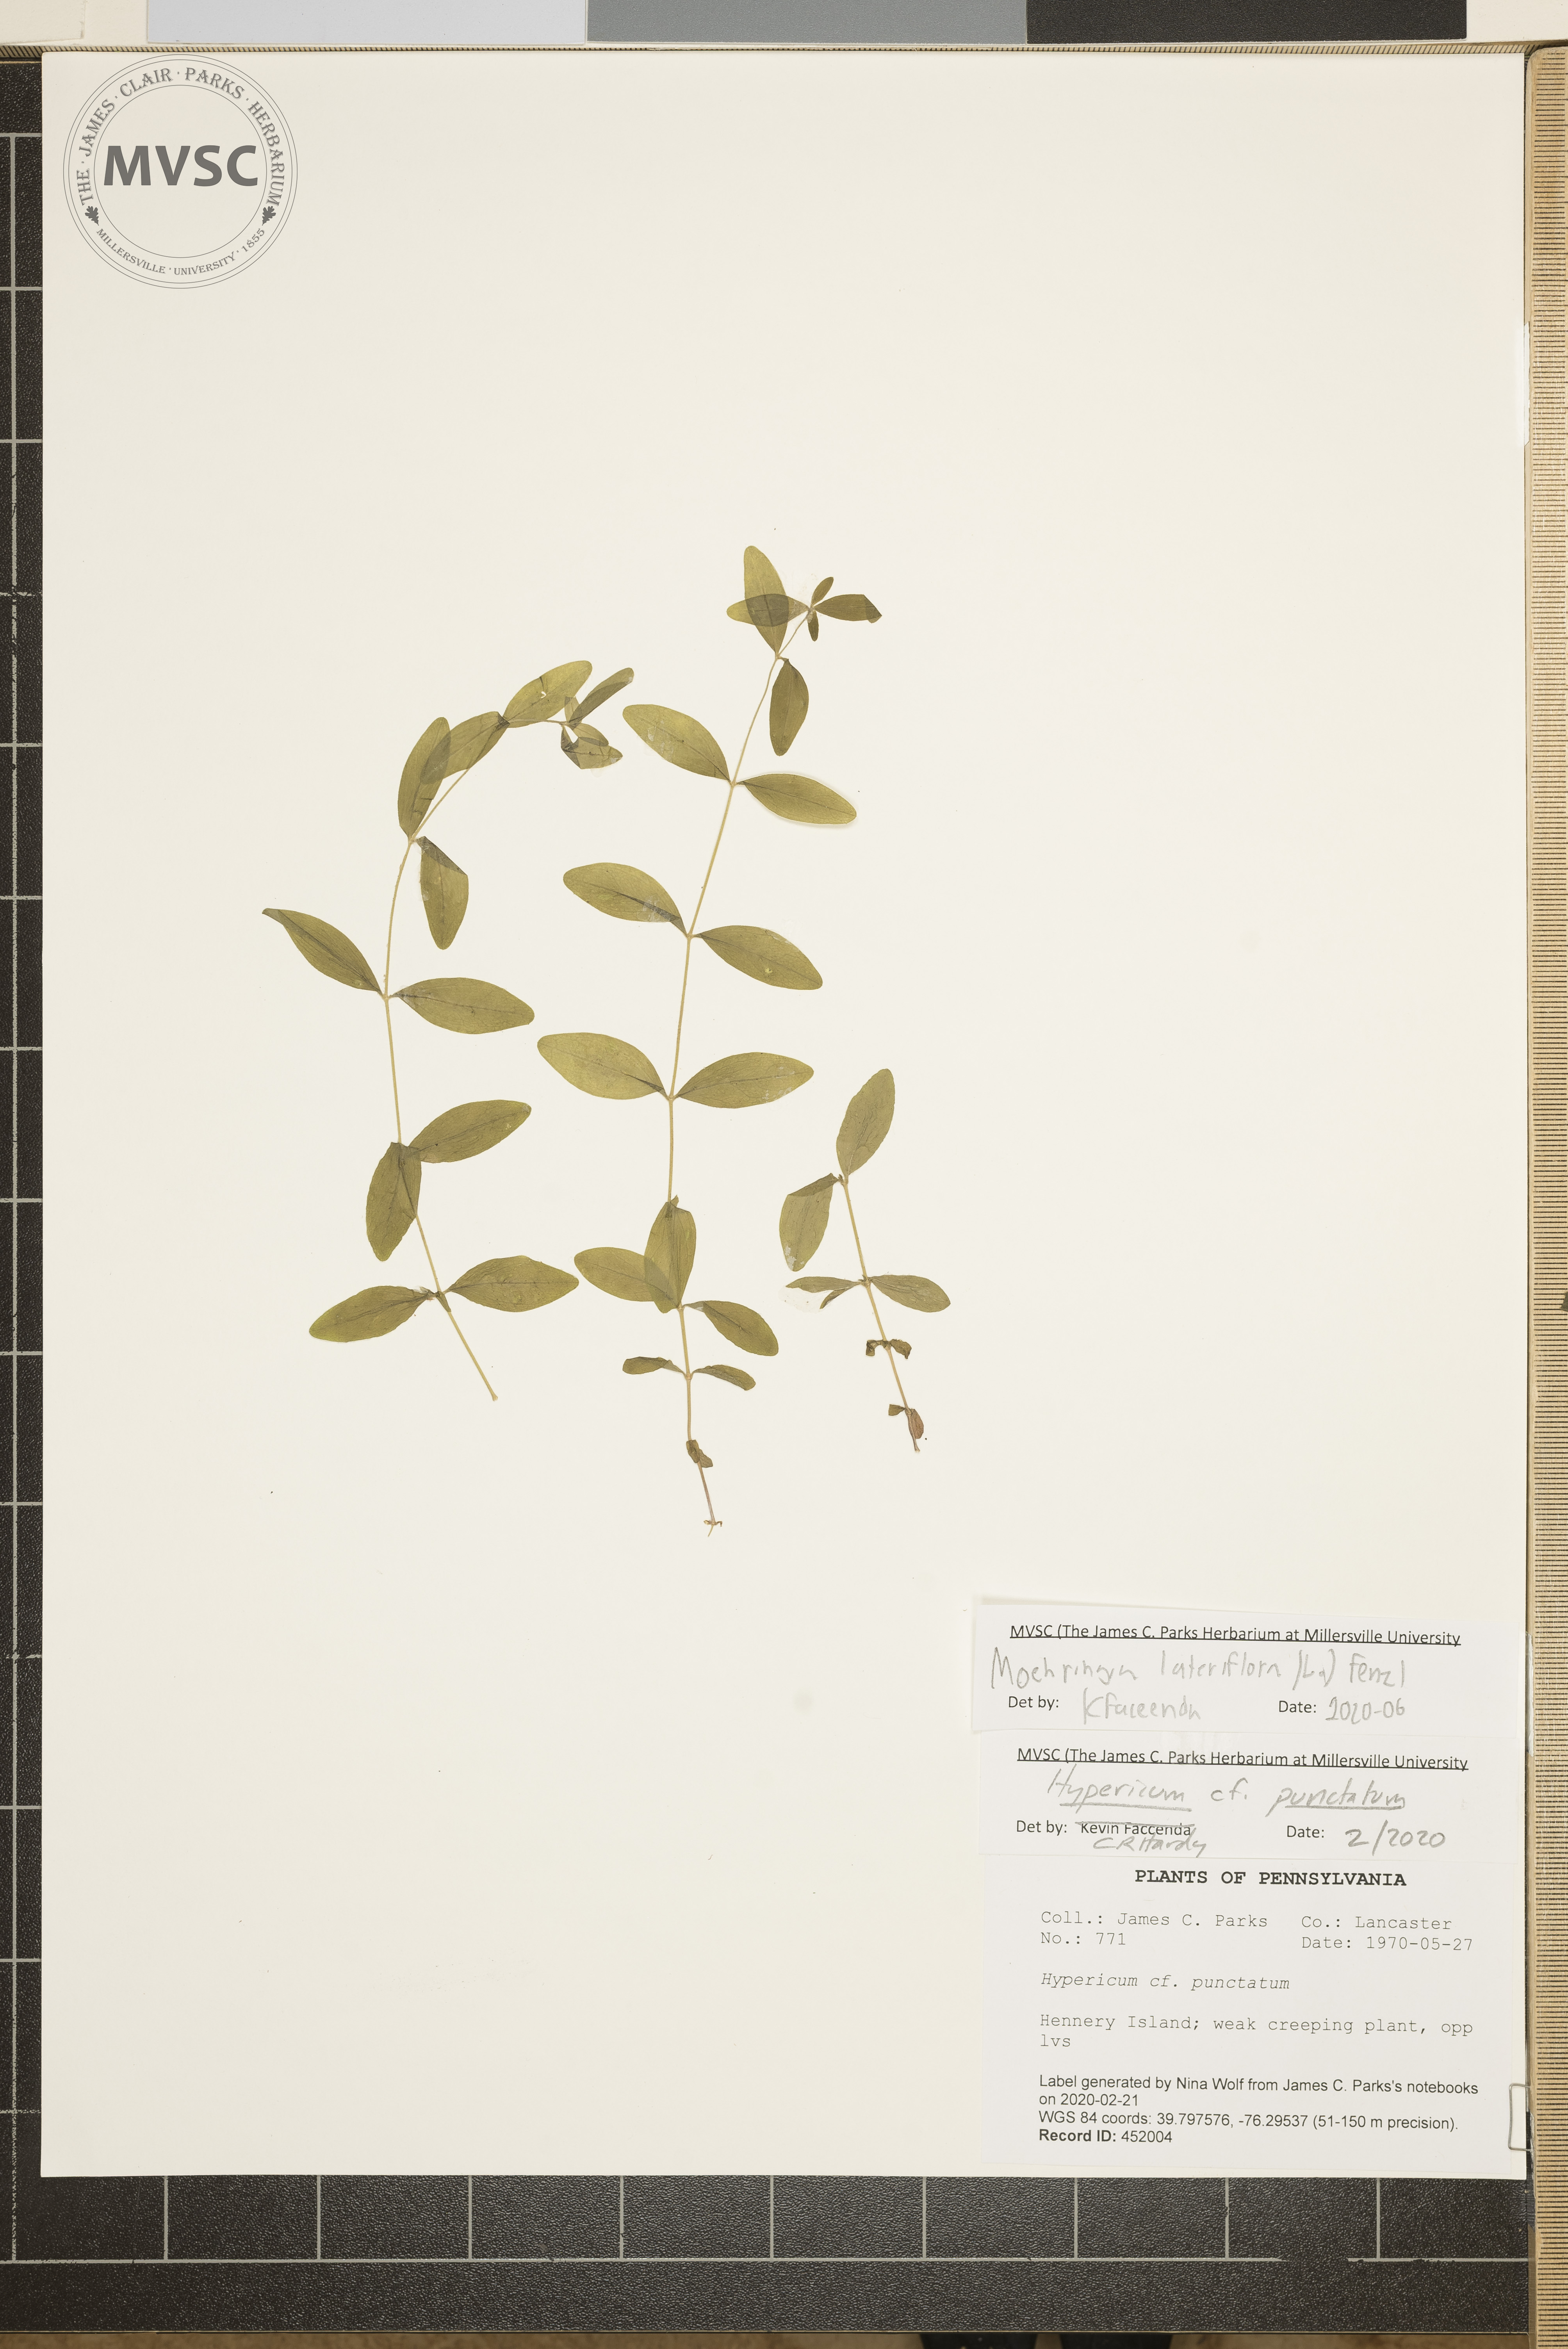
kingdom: Plantae
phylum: Tracheophyta
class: Magnoliopsida
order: Caryophyllales
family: Caryophyllaceae
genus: Moehringia
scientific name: Moehringia lateriflora
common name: Blunt-leaved sandwort
